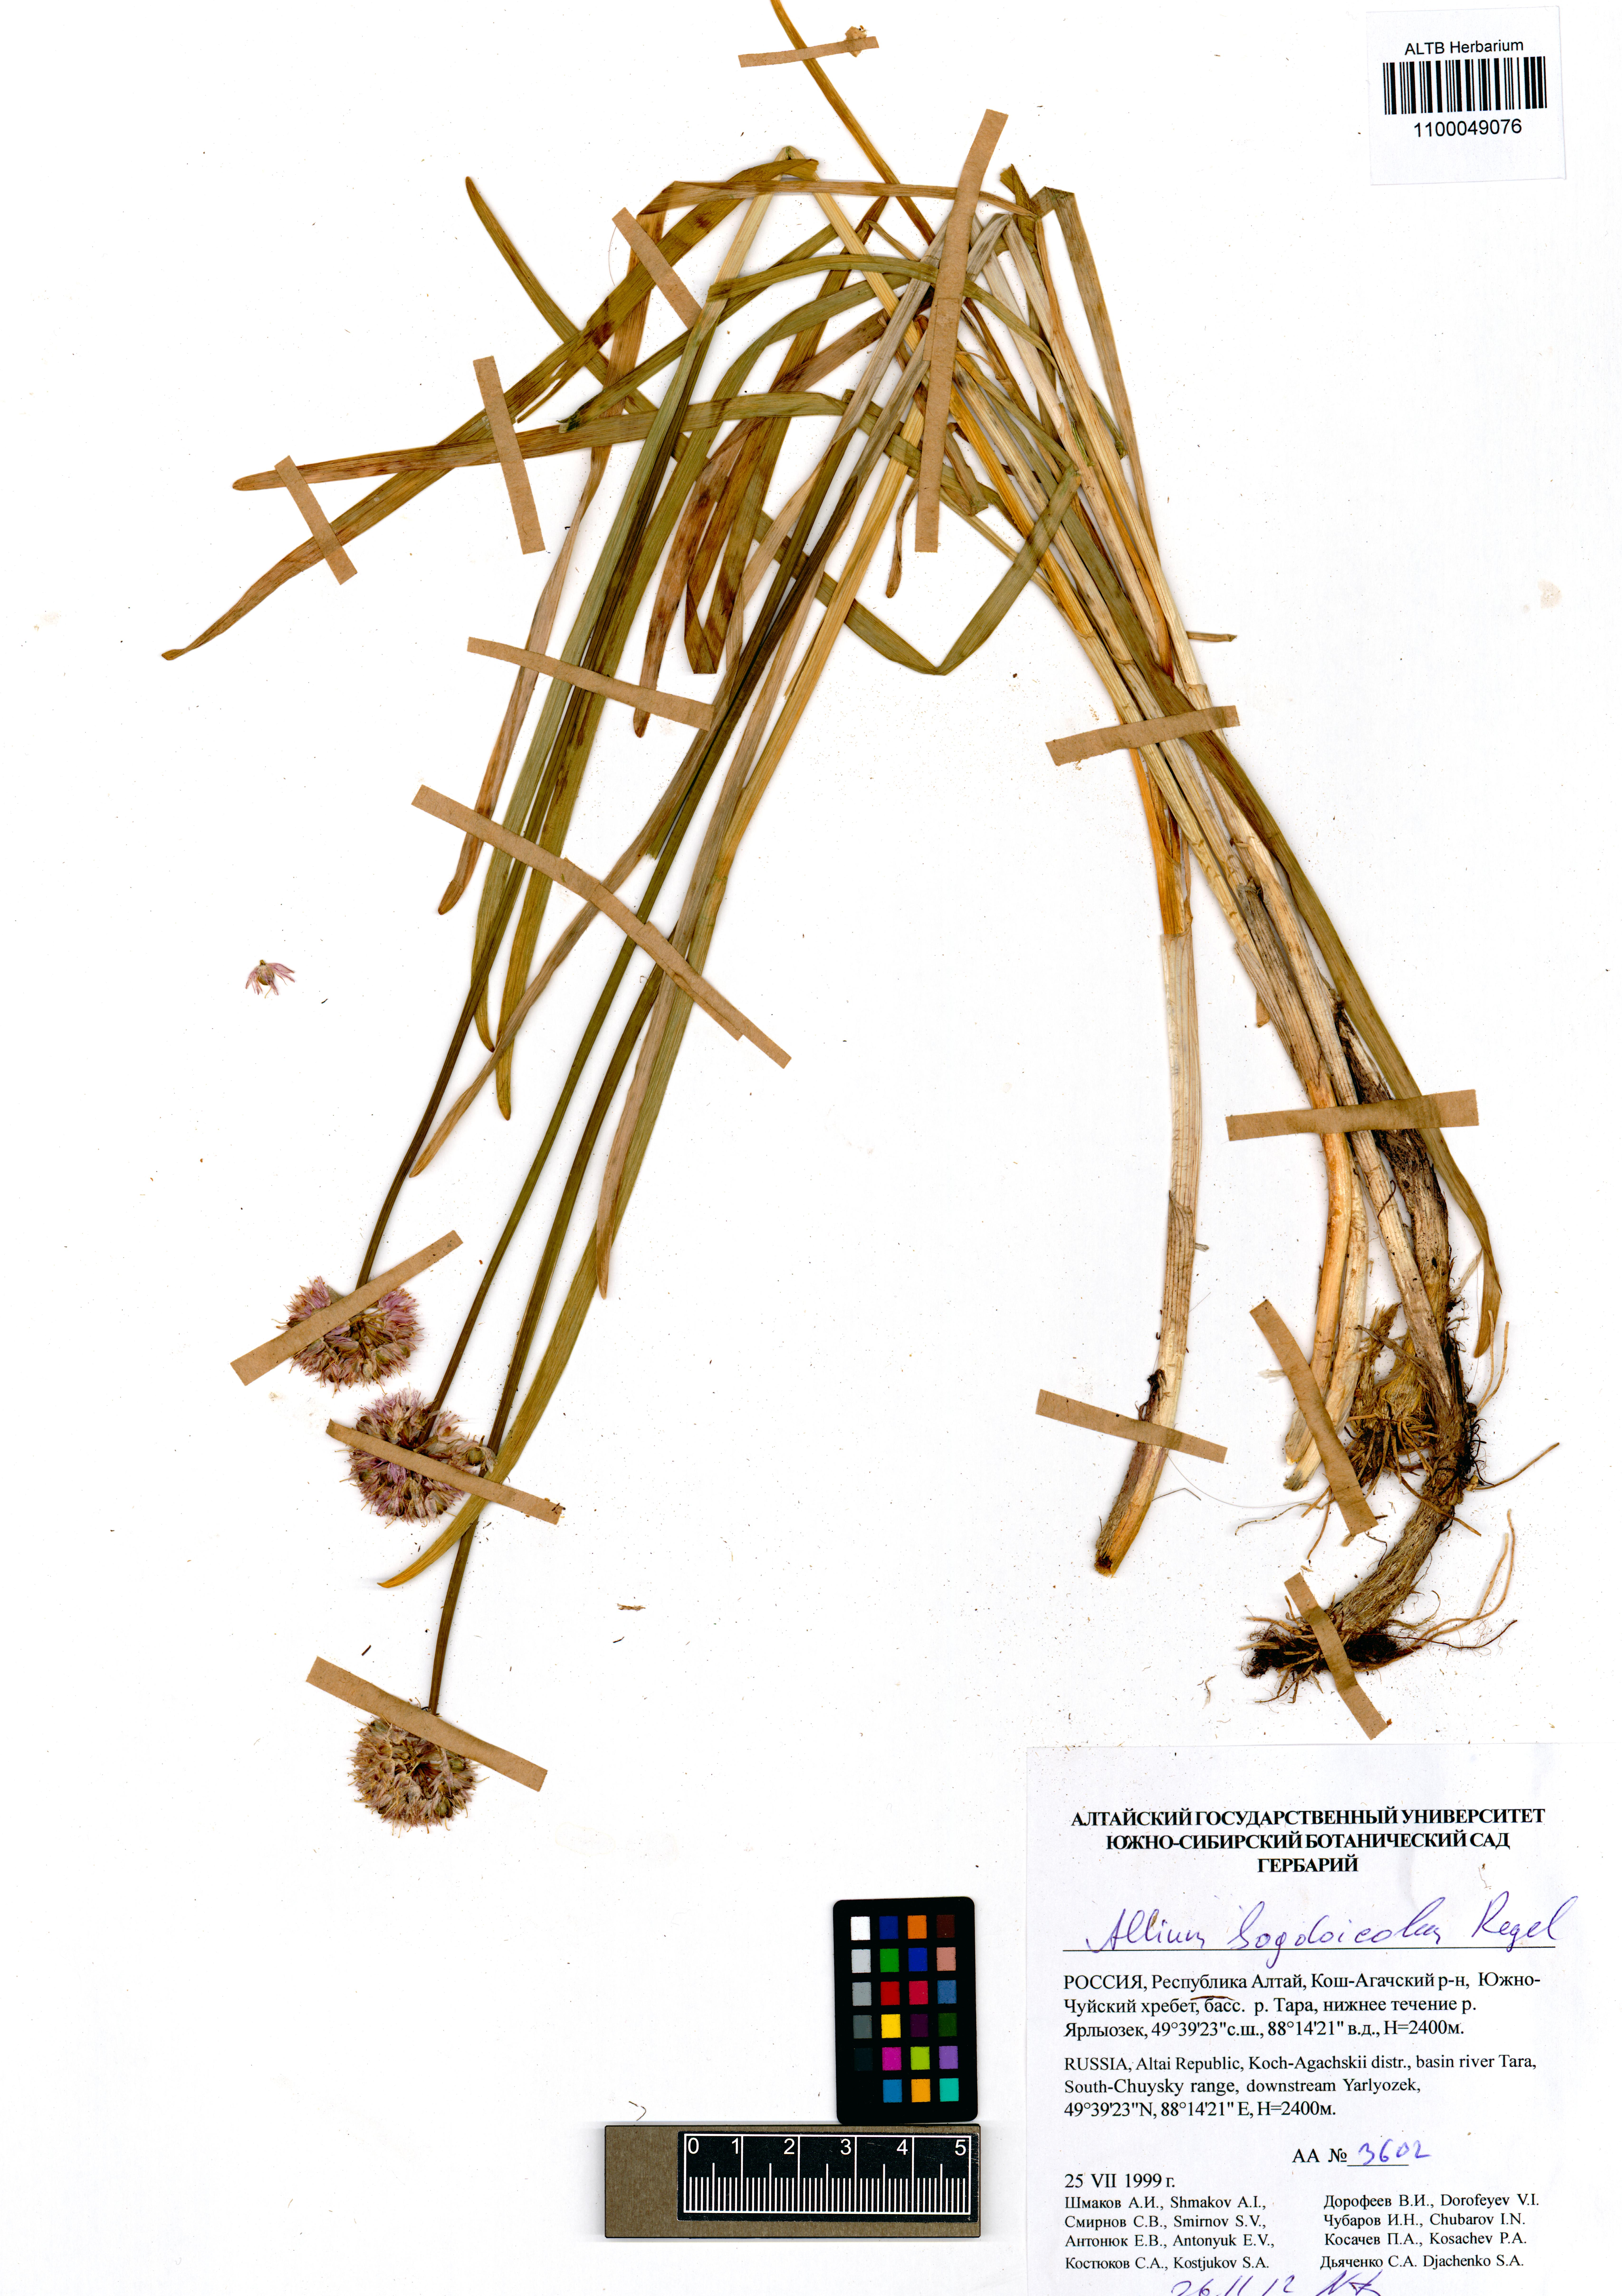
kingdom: Plantae
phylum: Tracheophyta
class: Liliopsida
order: Asparagales
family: Amaryllidaceae
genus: Allium
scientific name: Allium schrenkii
